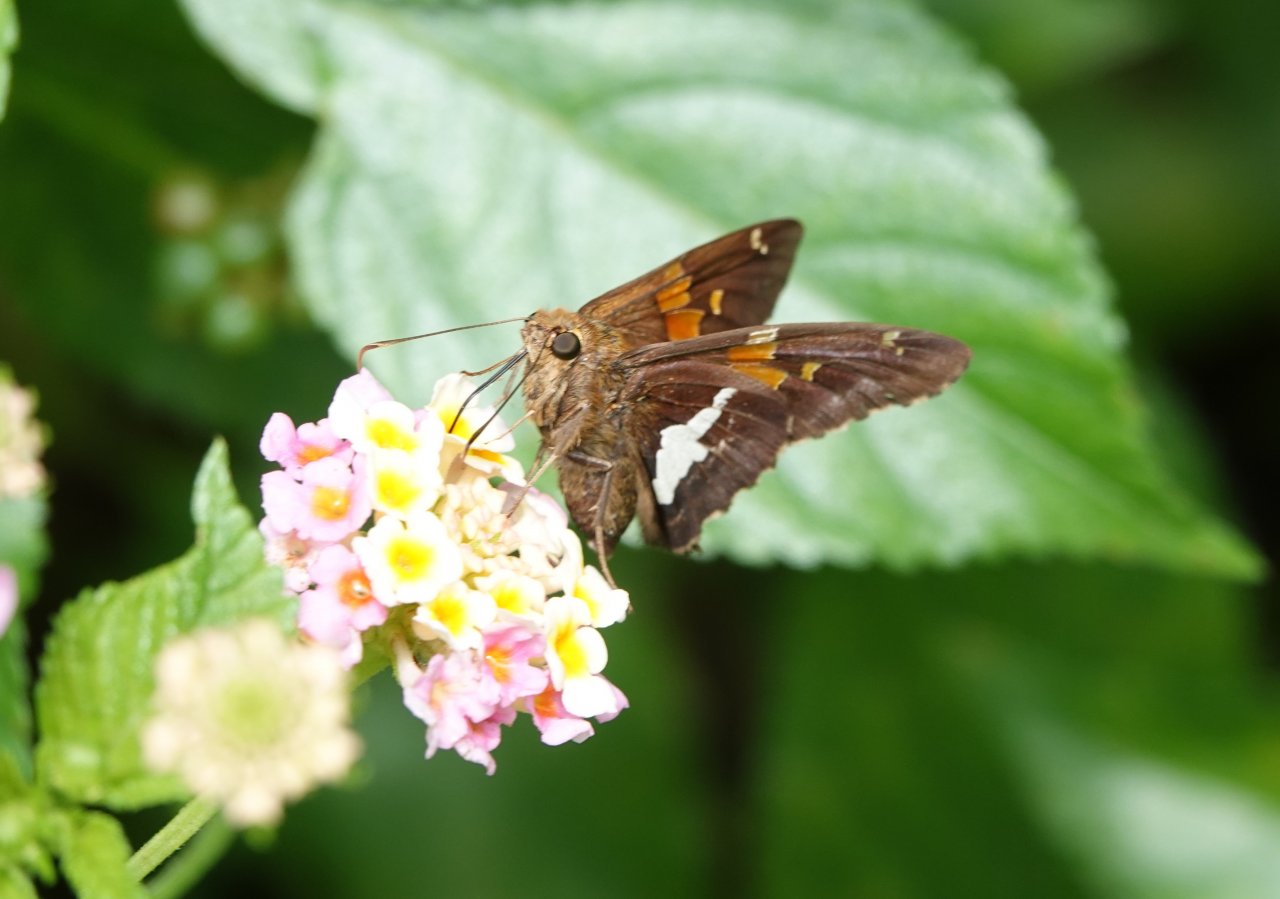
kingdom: Animalia
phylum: Arthropoda
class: Insecta
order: Lepidoptera
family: Hesperiidae
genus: Epargyreus
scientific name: Epargyreus clarus
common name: Silver-spotted Skipper
